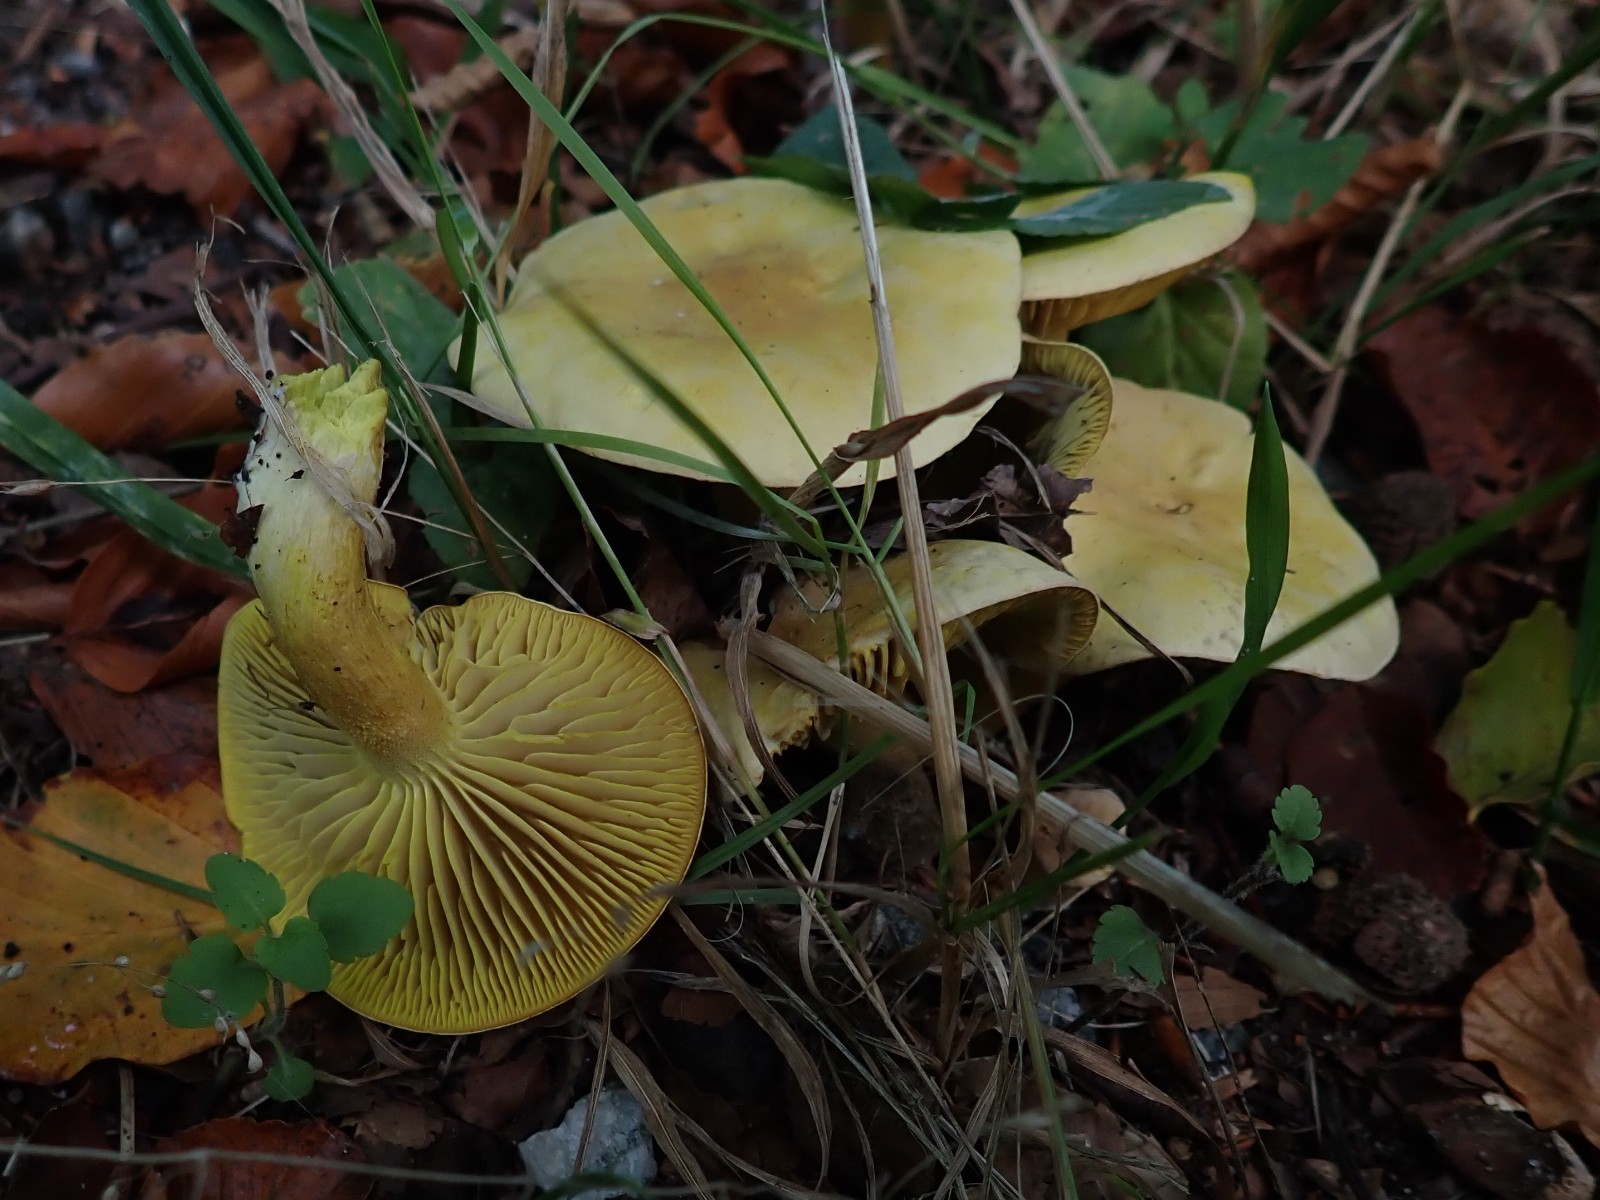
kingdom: Fungi
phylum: Basidiomycota
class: Agaricomycetes
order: Agaricales
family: Tricholomataceae
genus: Tricholoma
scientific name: Tricholoma sulphureum
